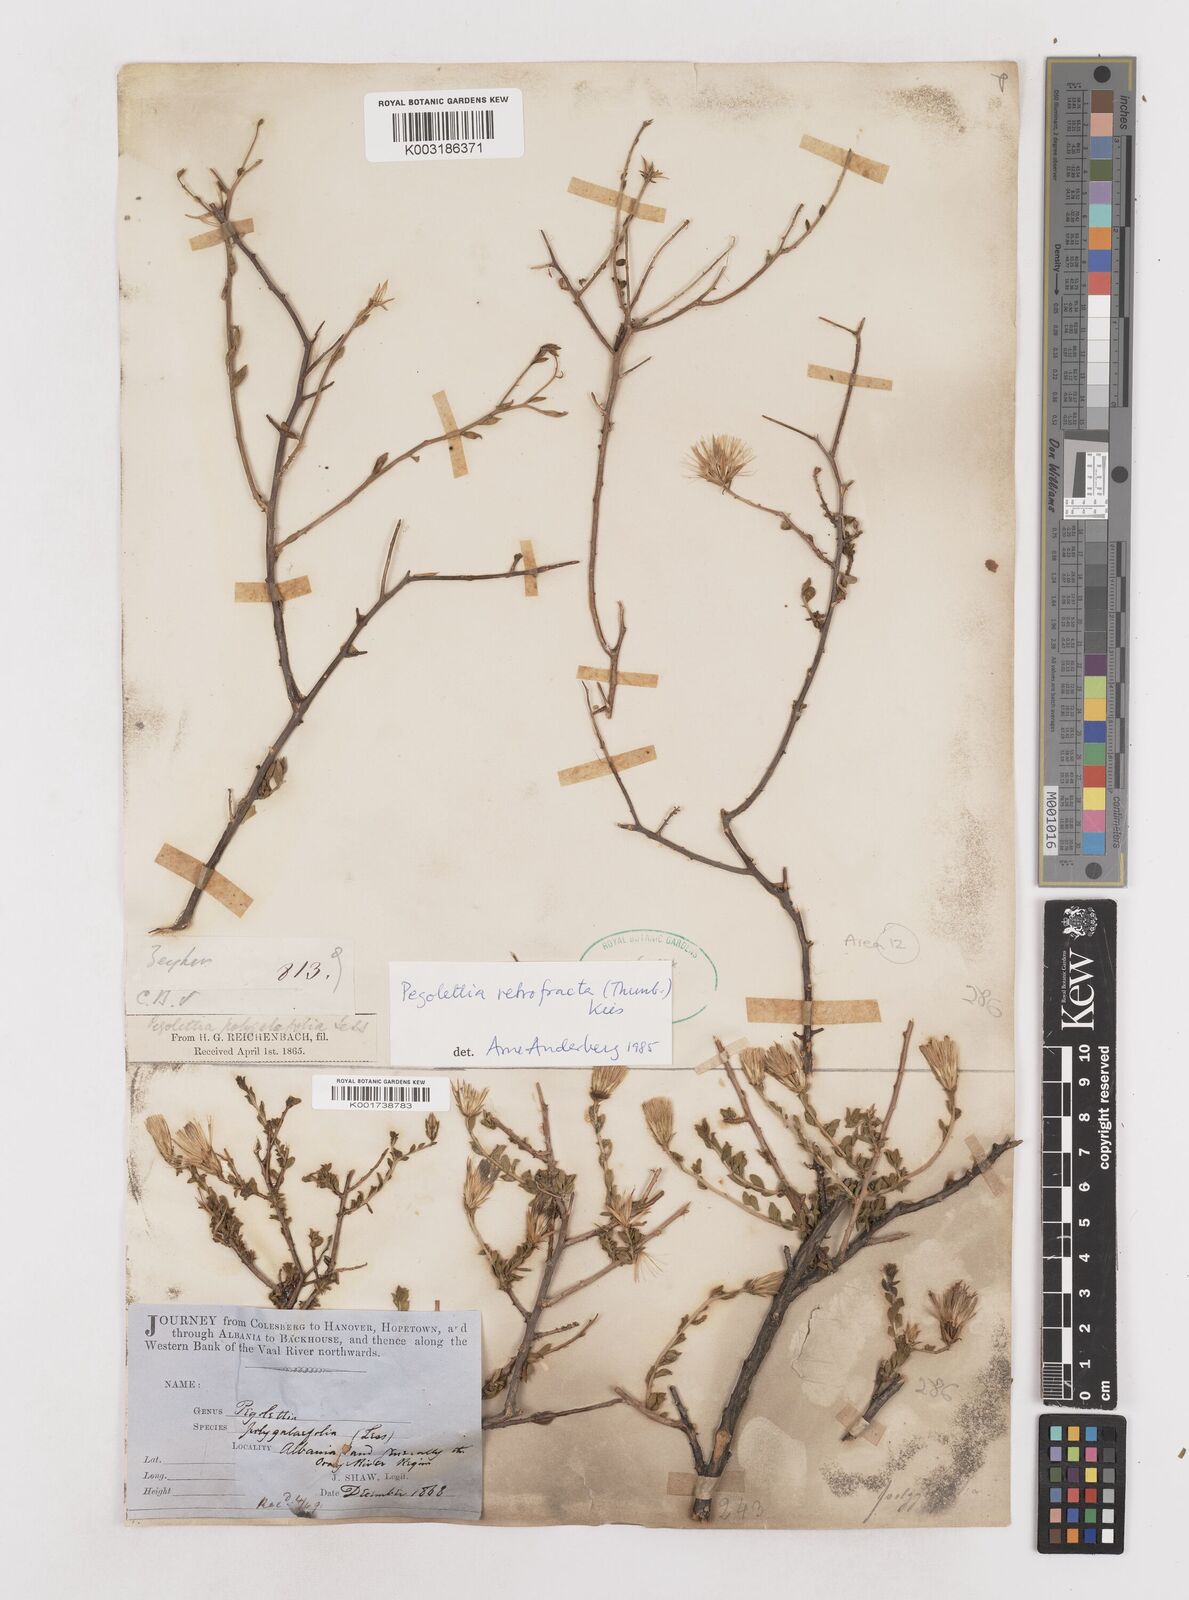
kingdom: Plantae
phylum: Tracheophyta
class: Magnoliopsida
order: Asterales
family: Asteraceae
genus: Pegolettia
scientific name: Pegolettia retrofracta
